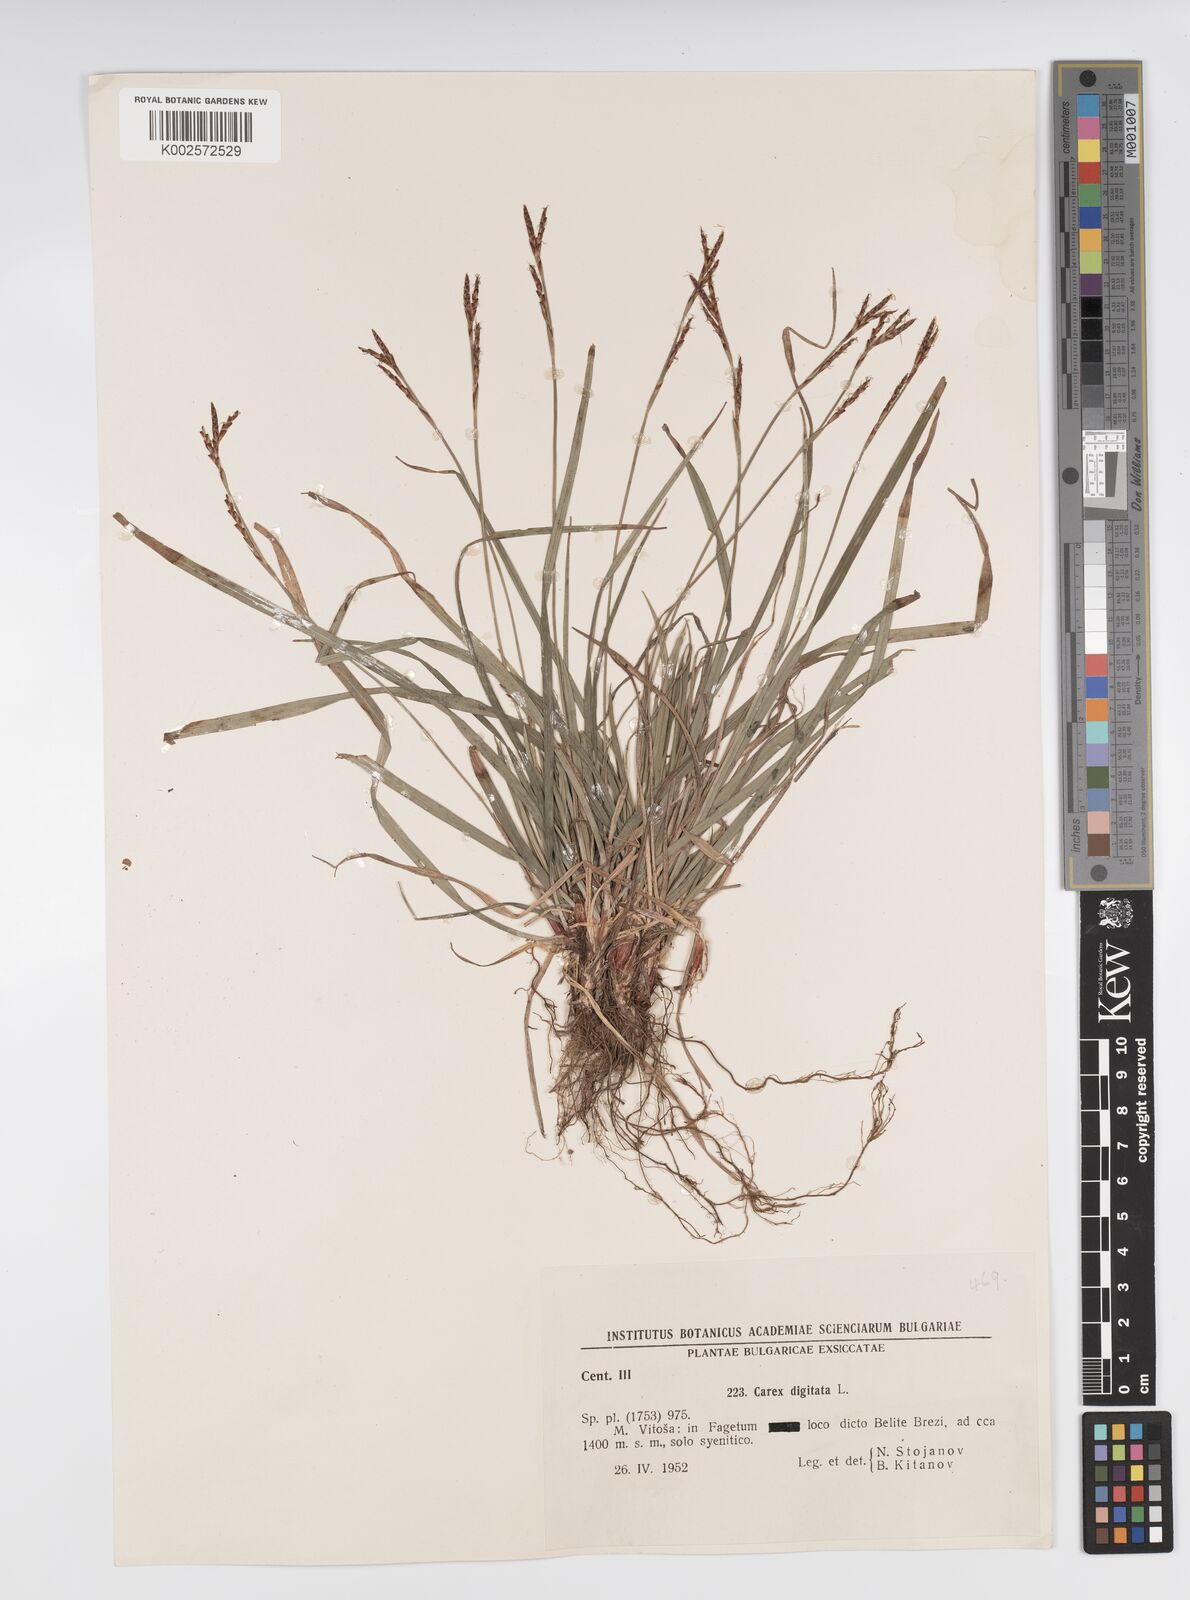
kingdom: Plantae
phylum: Tracheophyta
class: Liliopsida
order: Poales
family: Cyperaceae
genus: Carex
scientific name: Carex digitata
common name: Fingered sedge
